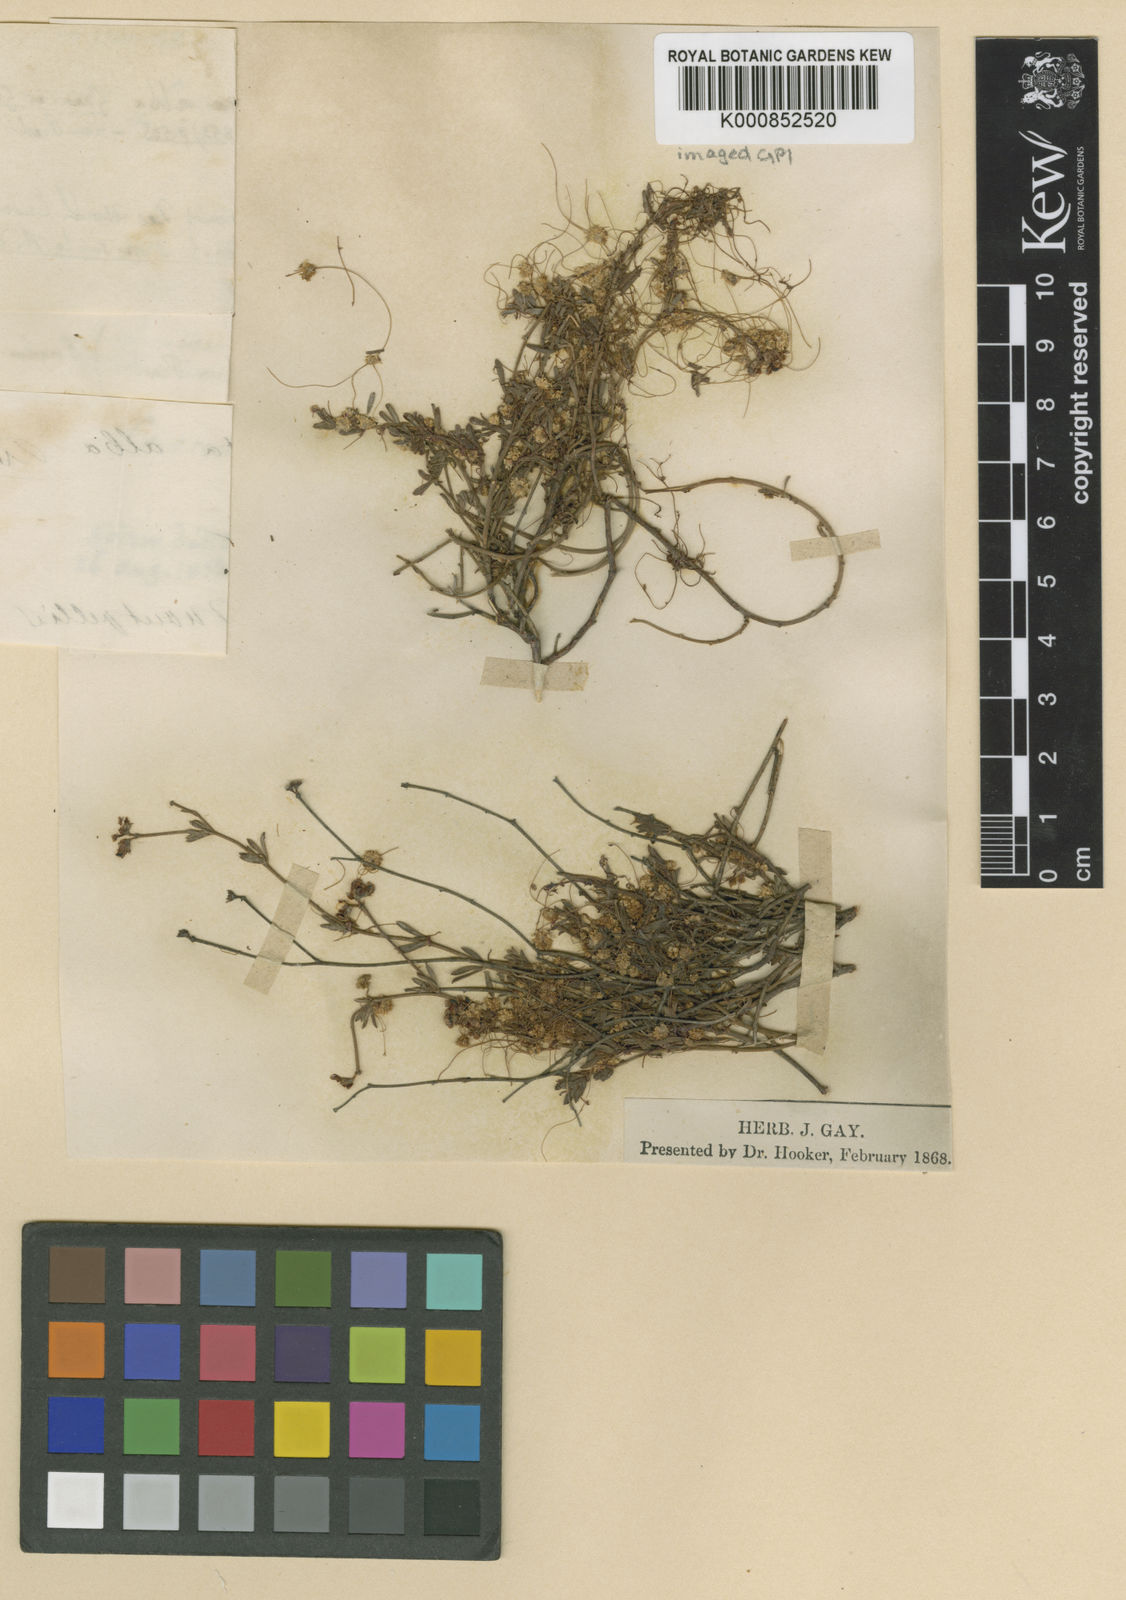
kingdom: Plantae
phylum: Tracheophyta
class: Magnoliopsida
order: Solanales
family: Convolvulaceae
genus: Cuscuta
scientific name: Cuscuta approximata
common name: Alfalfa dodder
